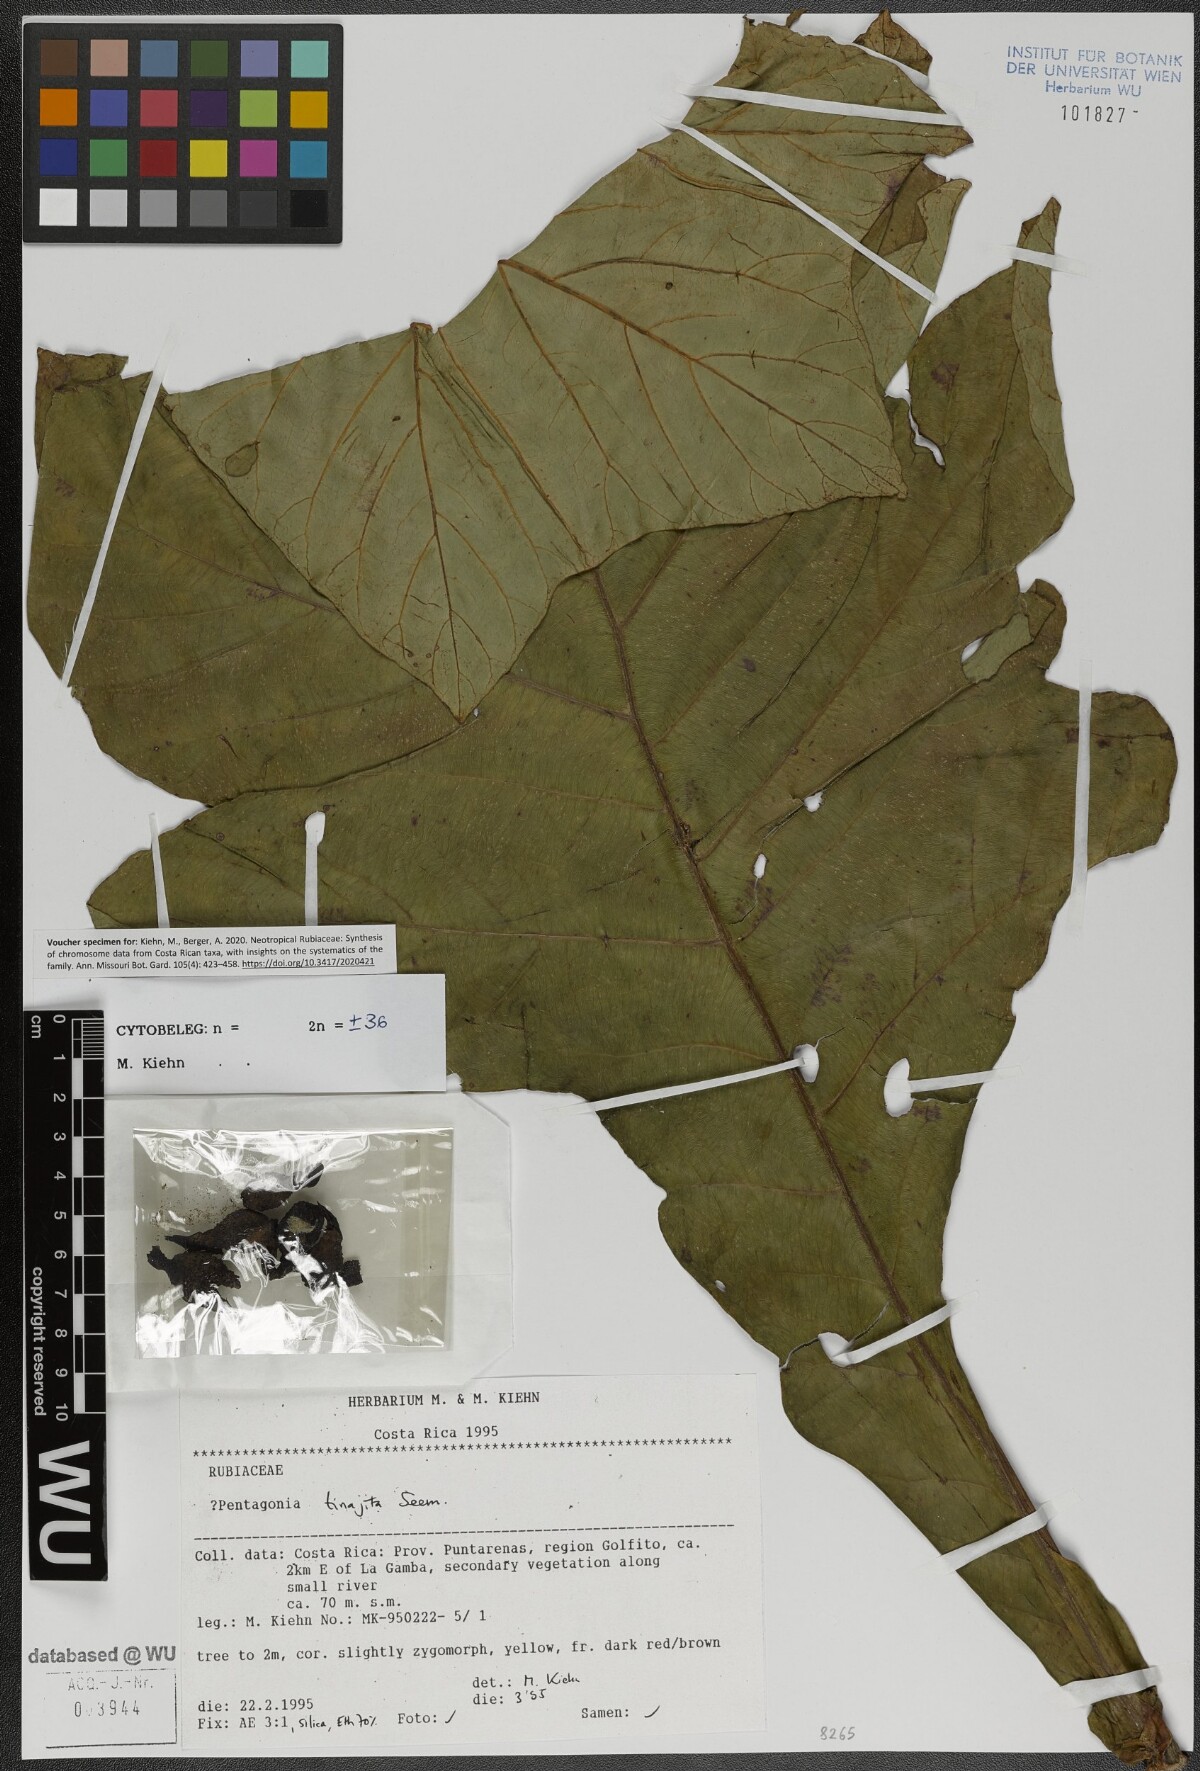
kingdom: Plantae
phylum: Tracheophyta
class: Magnoliopsida
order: Gentianales
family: Rubiaceae
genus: Pentagonia
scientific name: Pentagonia tinajita
